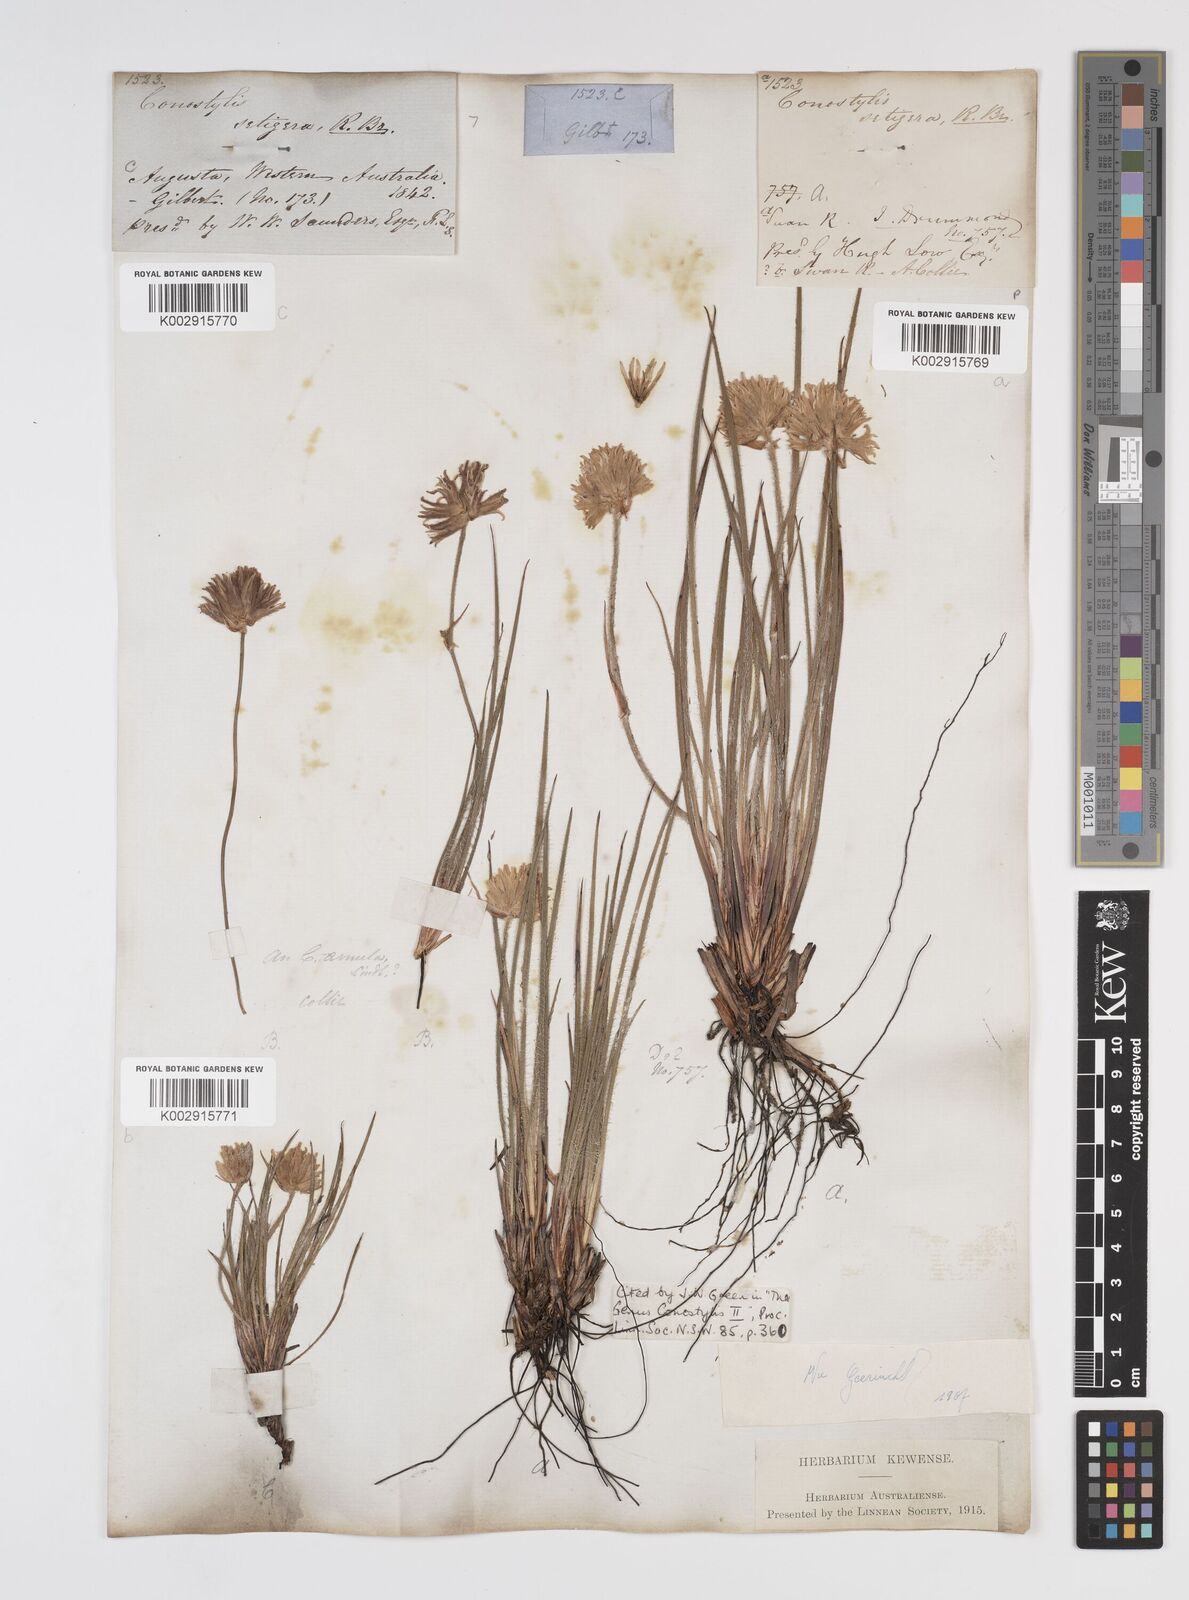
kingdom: Plantae
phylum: Tracheophyta
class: Liliopsida
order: Commelinales
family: Haemodoraceae
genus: Conostylis
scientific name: Conostylis setigera
